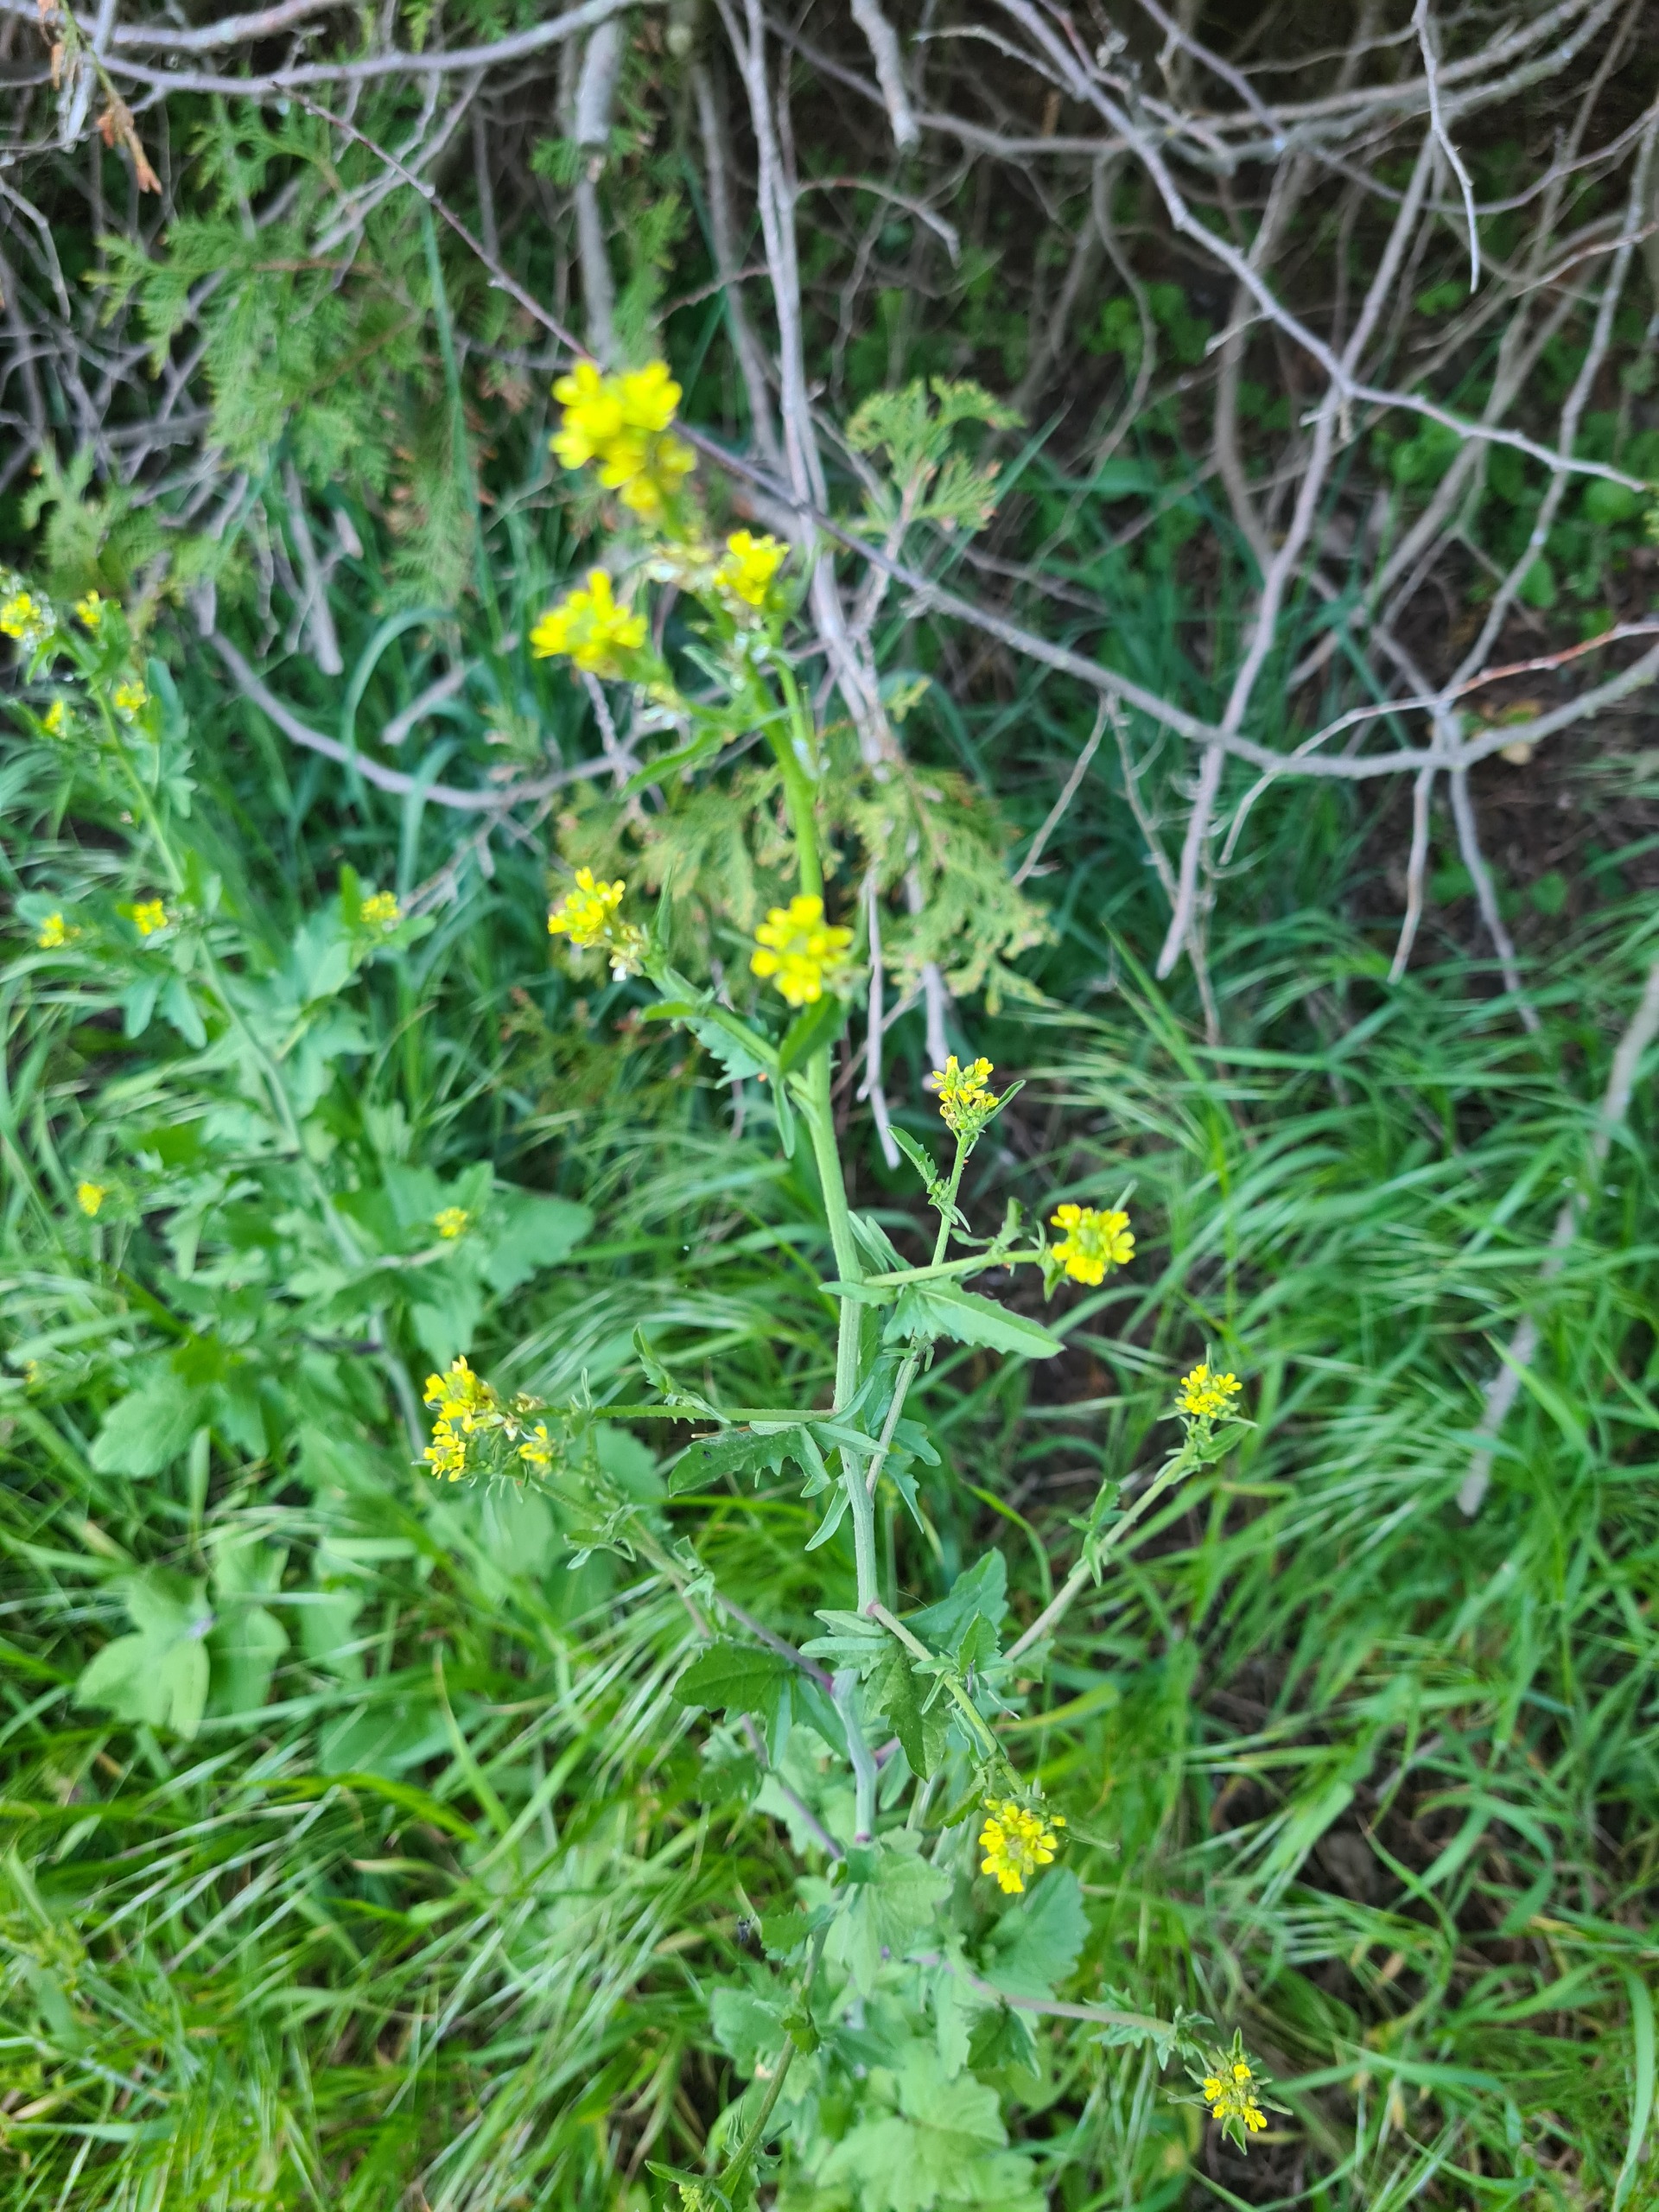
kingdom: Plantae
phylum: Tracheophyta
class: Magnoliopsida
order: Brassicales
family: Brassicaceae
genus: Sisymbrium
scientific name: Sisymbrium officinale
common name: Rank vejsennep
